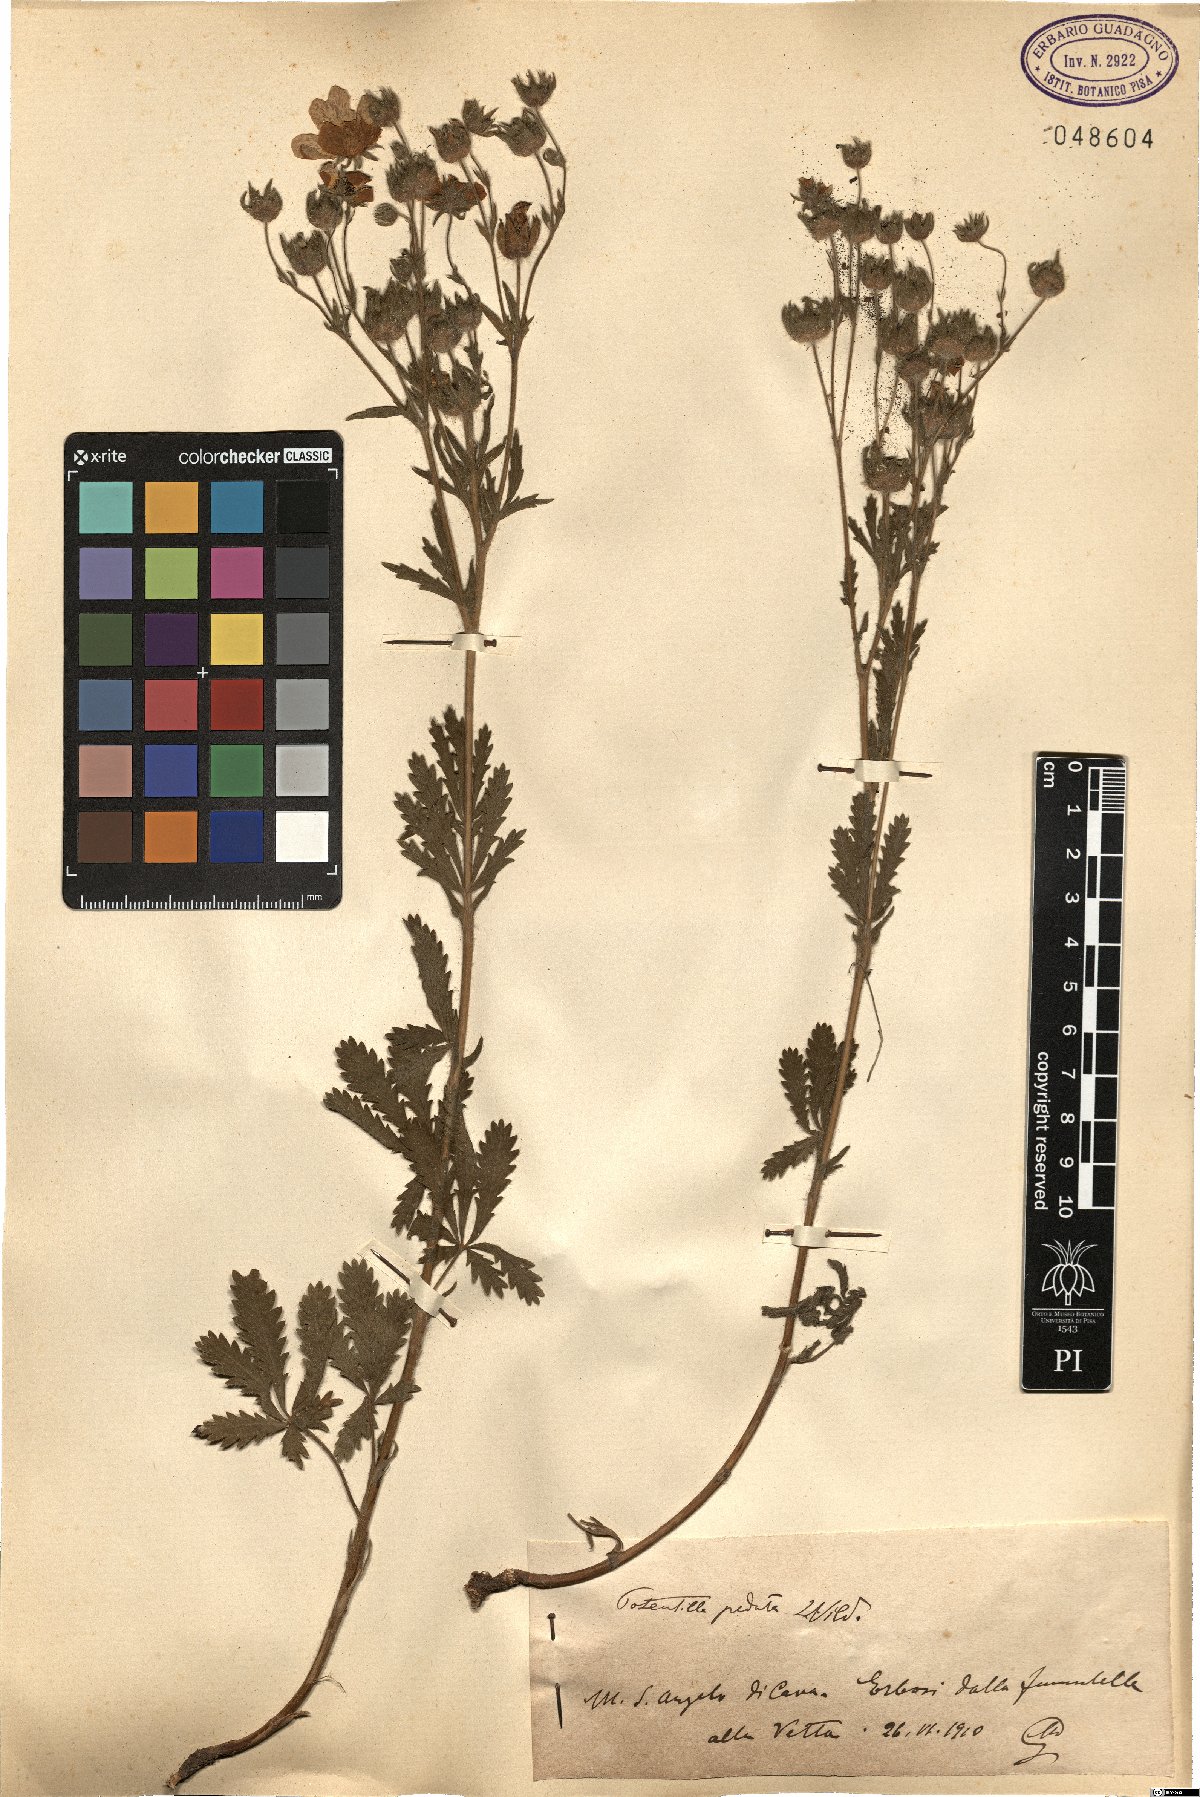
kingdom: Plantae
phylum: Tracheophyta
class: Magnoliopsida
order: Rosales
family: Rosaceae
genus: Potentilla
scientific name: Potentilla pedata
